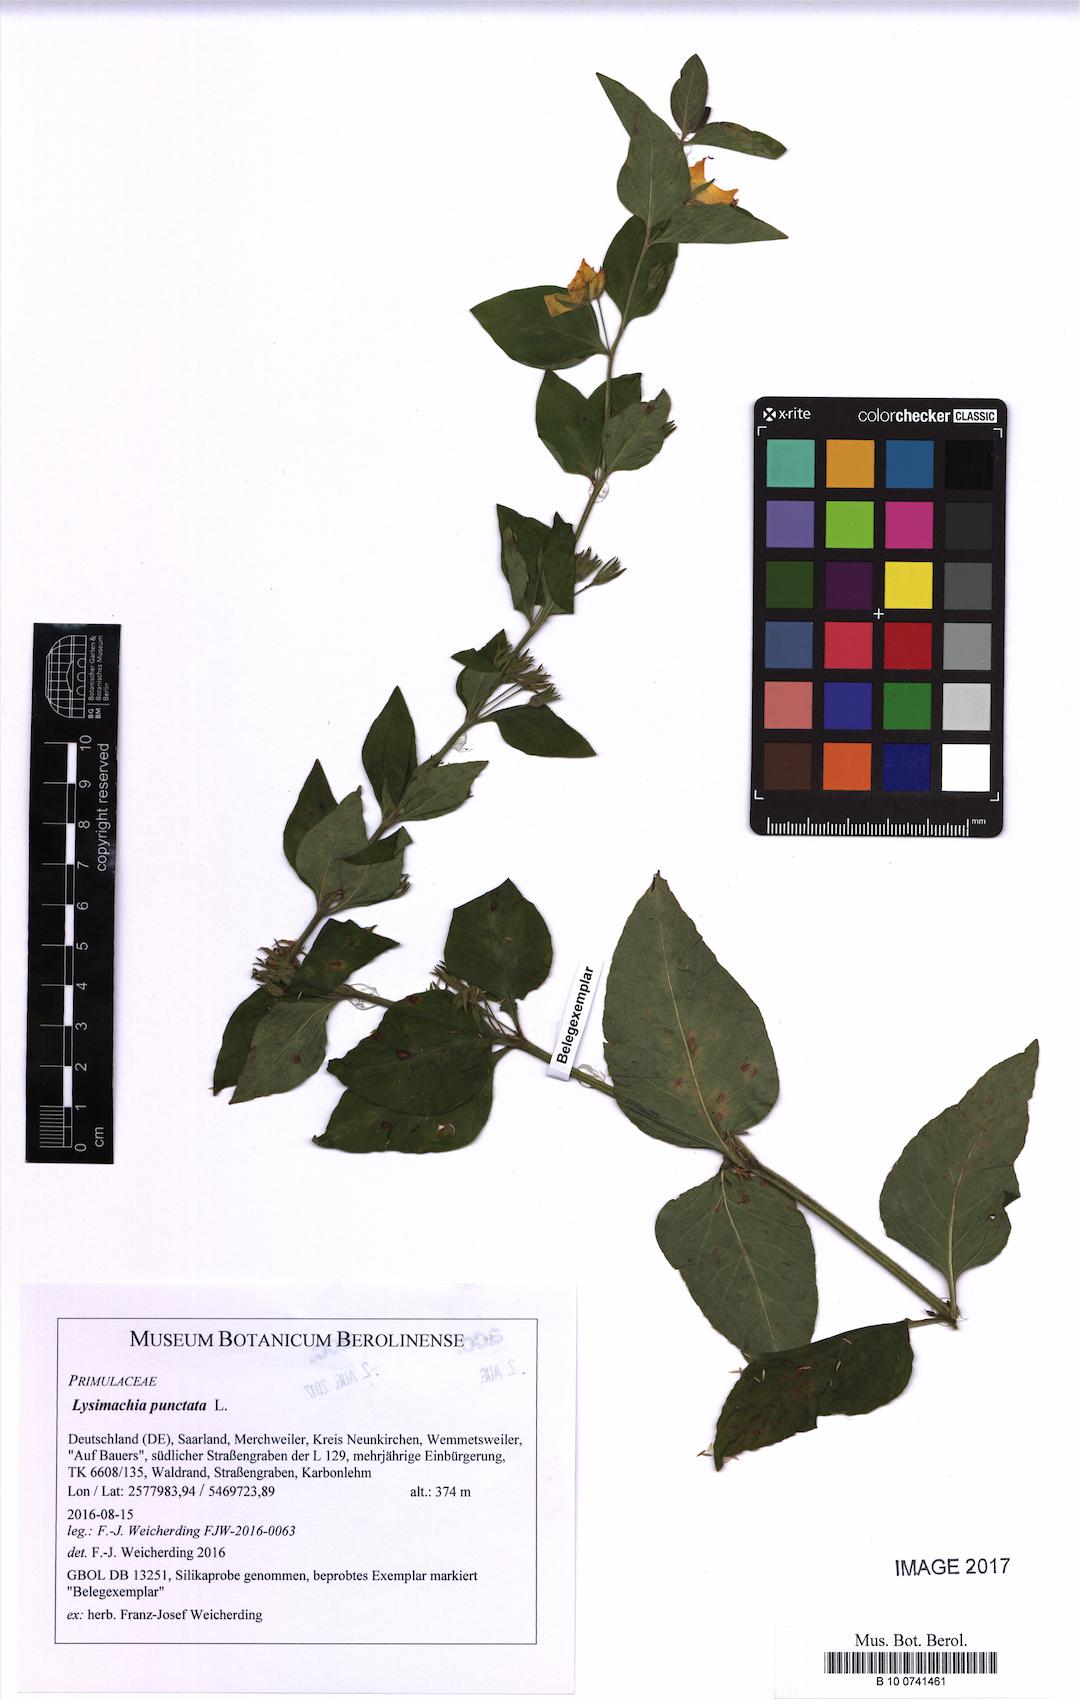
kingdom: Plantae
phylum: Tracheophyta
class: Magnoliopsida
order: Ericales
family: Primulaceae
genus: Lysimachia
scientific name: Lysimachia punctata
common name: Dotted loosestrife
